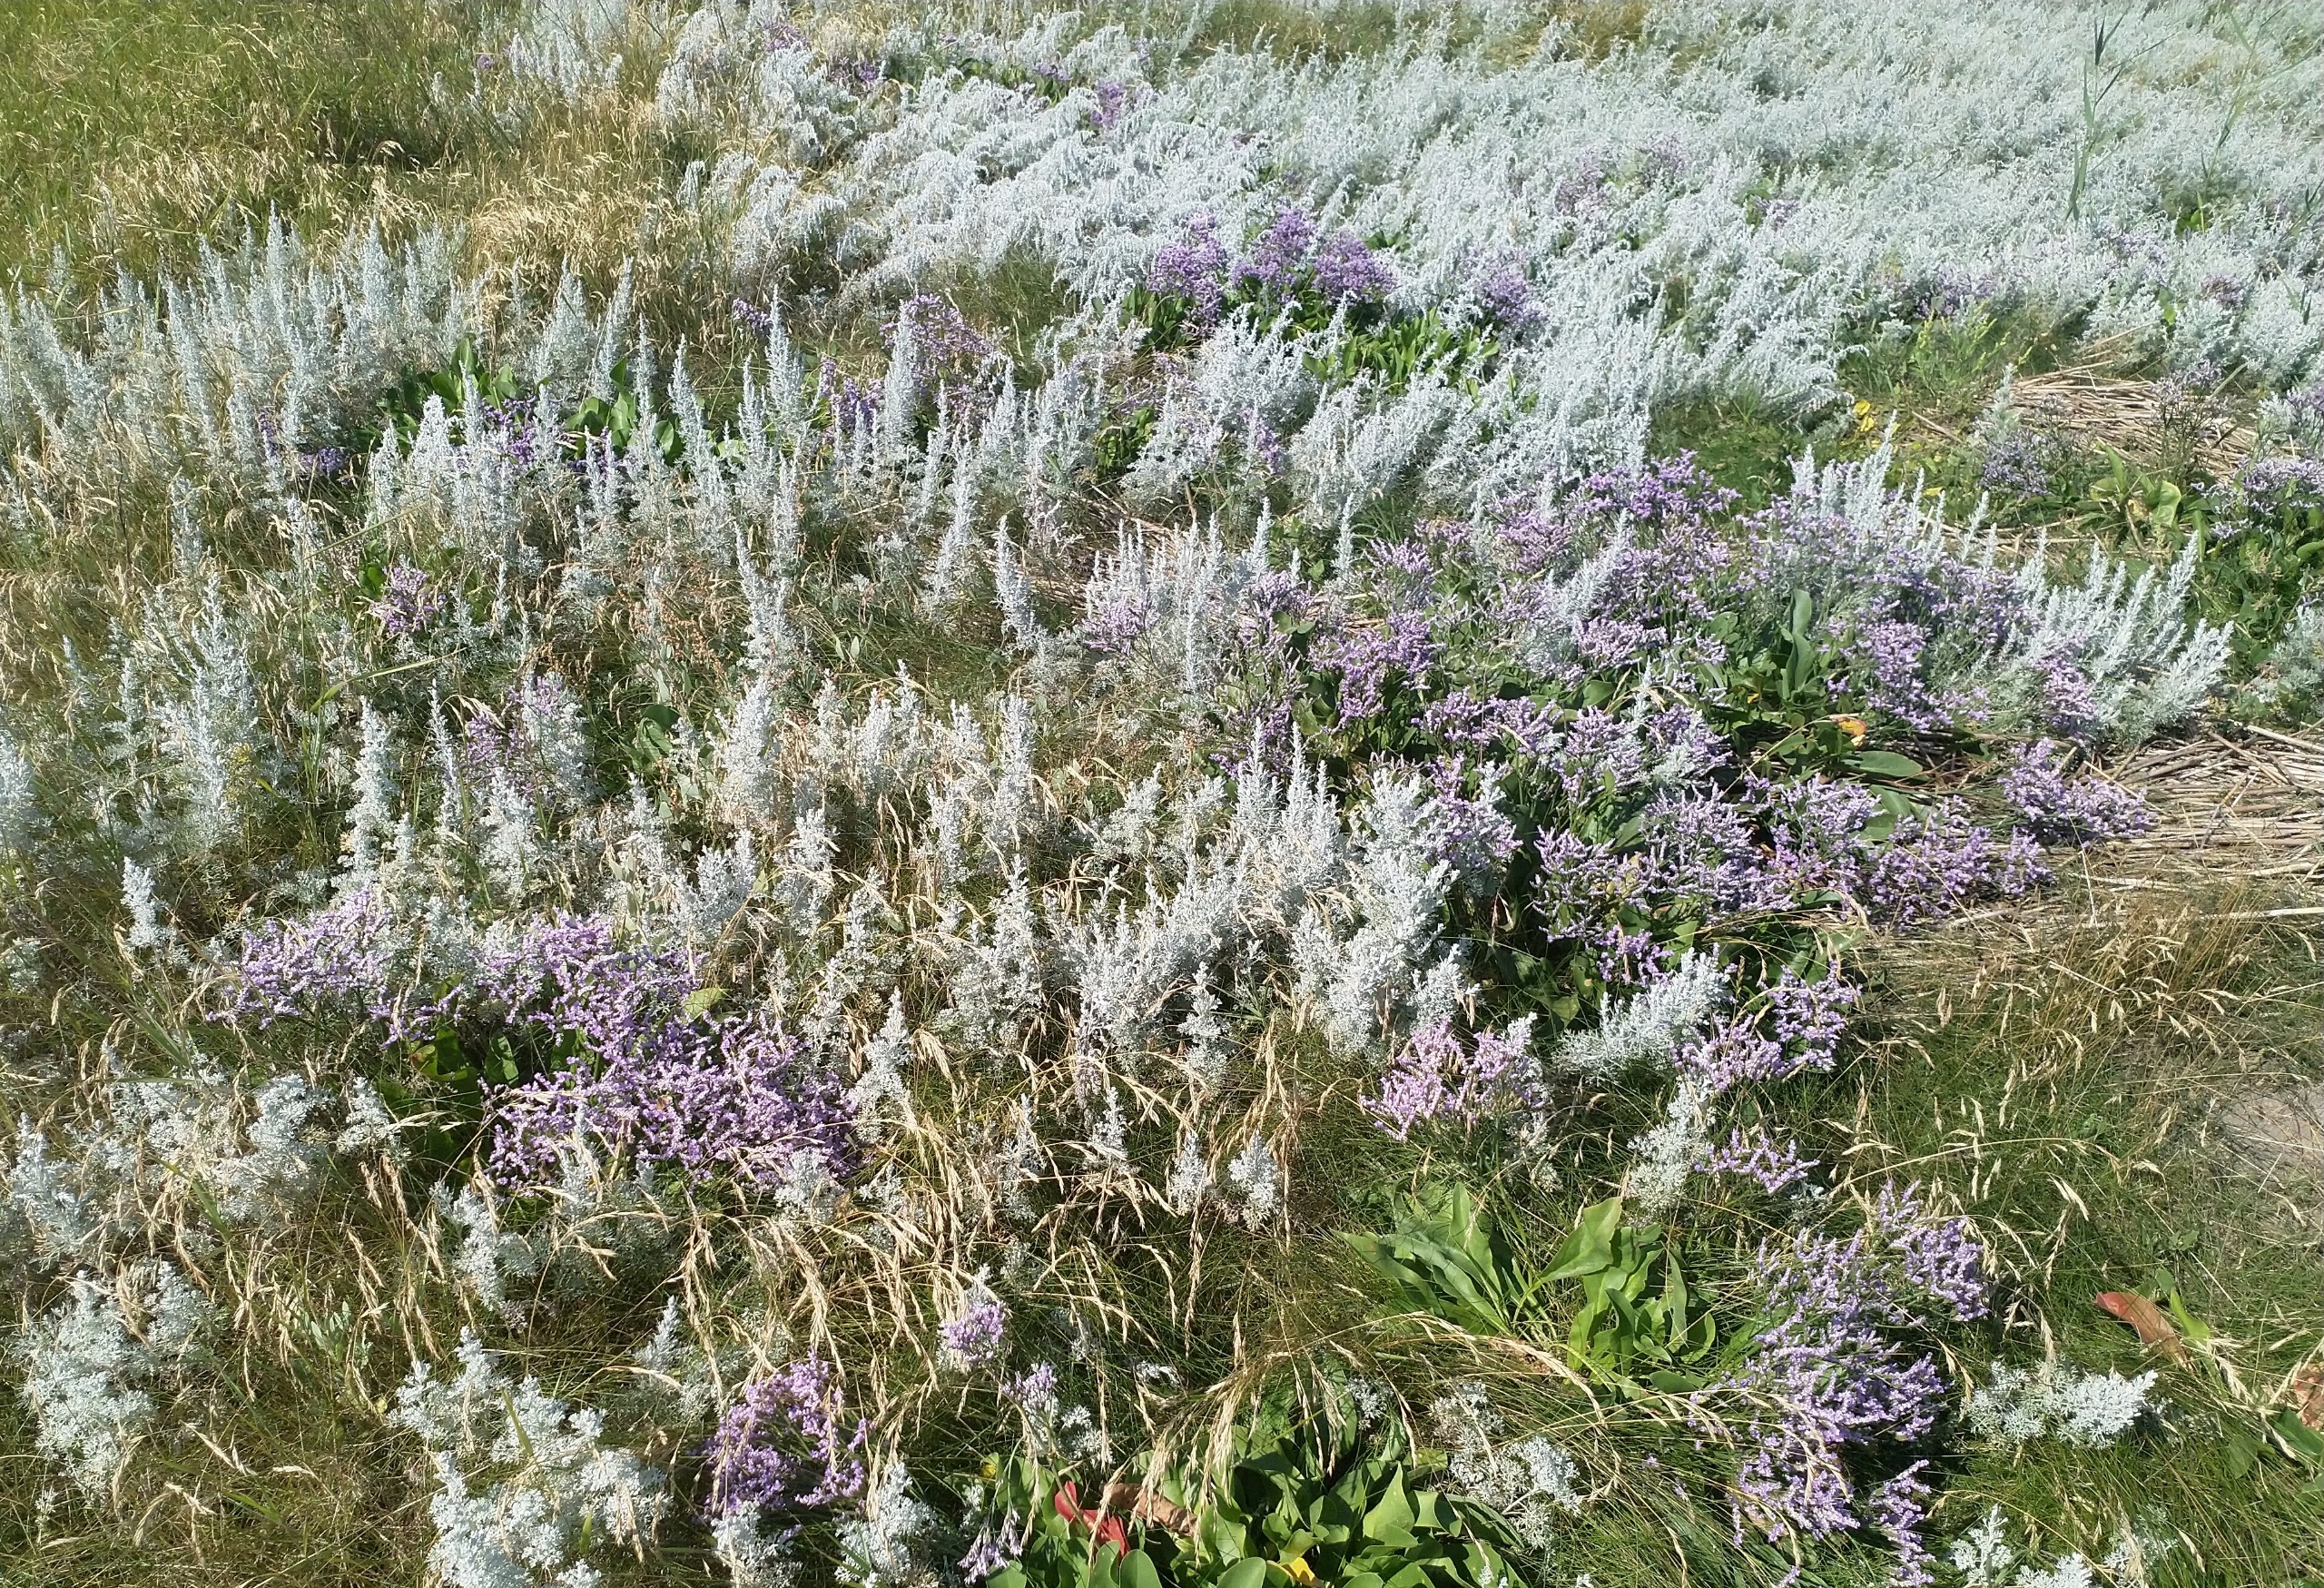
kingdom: Plantae
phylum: Tracheophyta
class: Magnoliopsida
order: Caryophyllales
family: Plumbaginaceae
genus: Limonium
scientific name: Limonium vulgare
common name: Tætblomstret hindebæger
